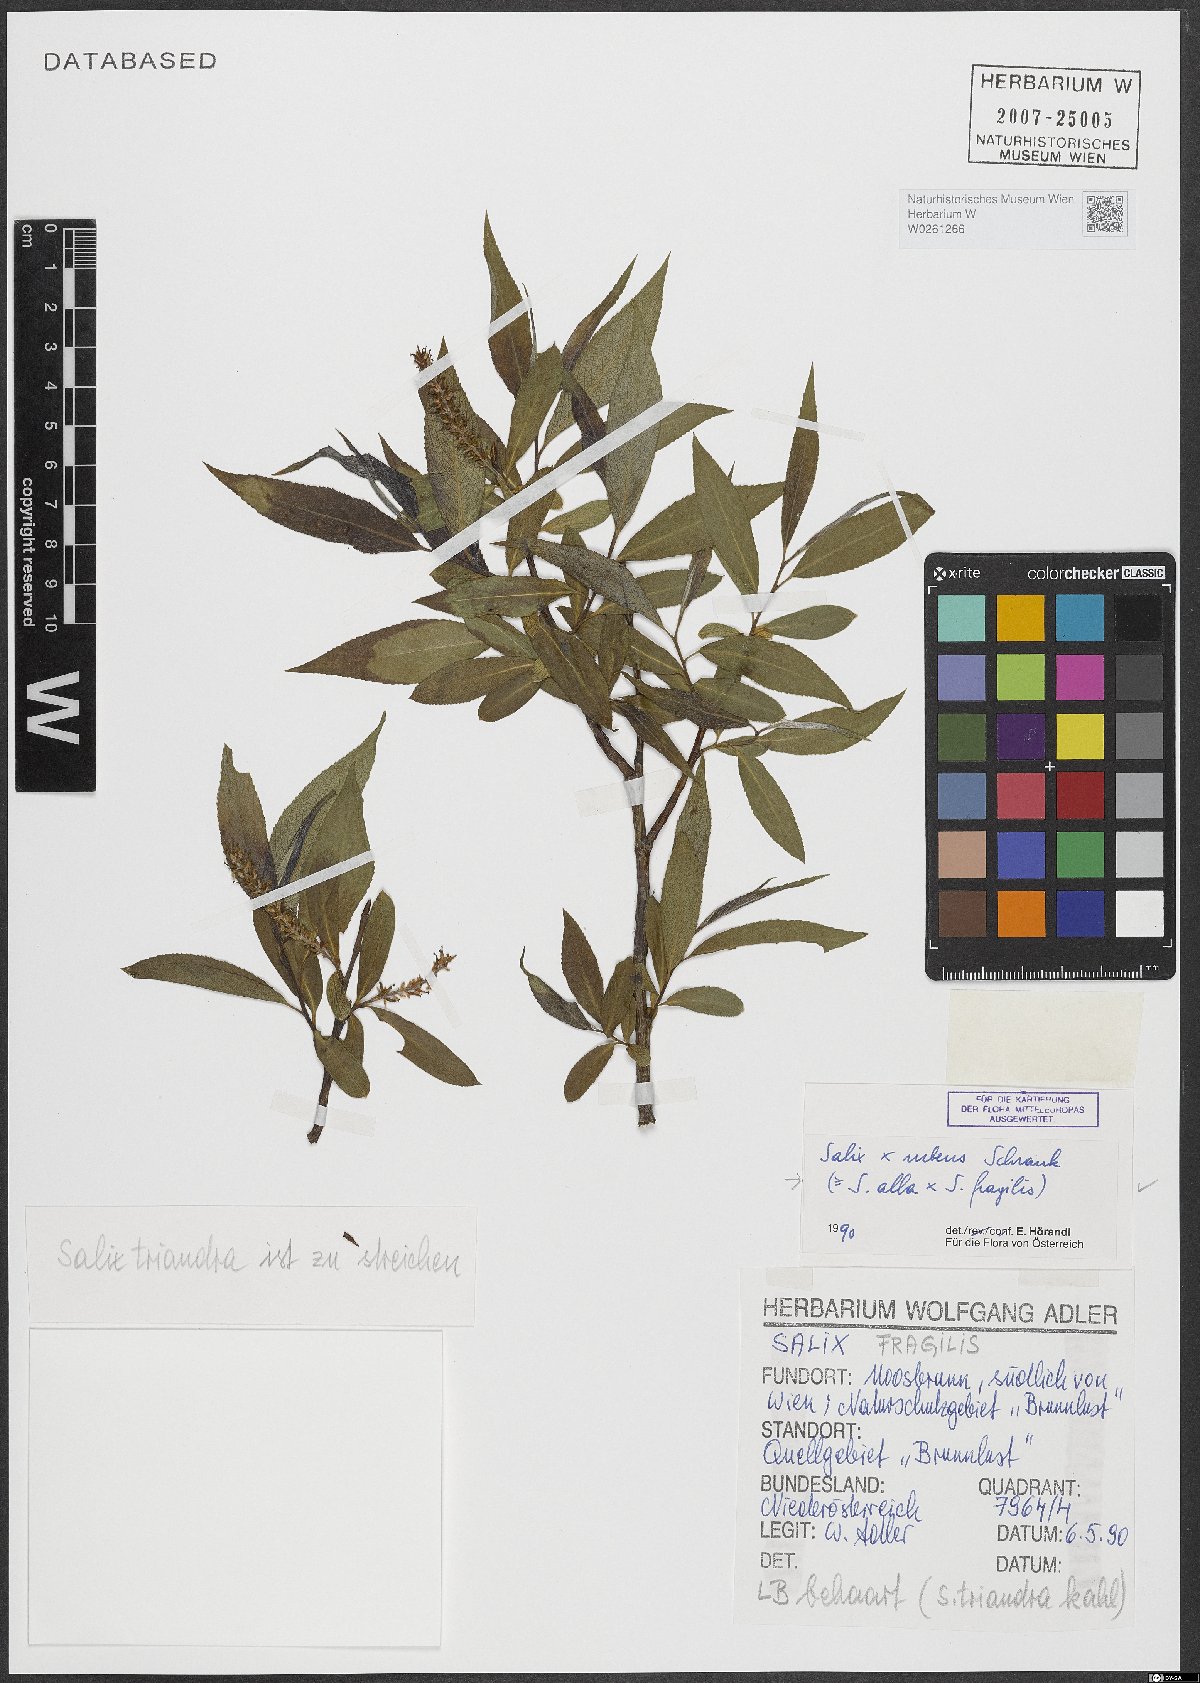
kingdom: Plantae
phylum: Tracheophyta
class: Magnoliopsida
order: Malpighiales
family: Salicaceae
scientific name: Salicaceae
